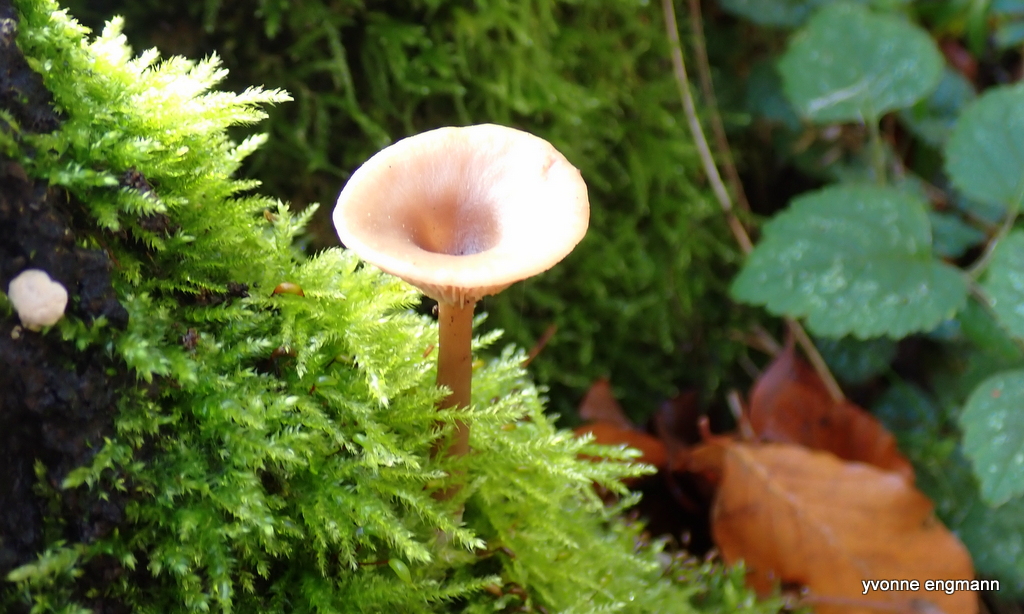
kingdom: Fungi
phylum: Basidiomycota
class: Agaricomycetes
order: Agaricales
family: Tricholomataceae
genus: Infundibulicybe
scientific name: Infundibulicybe gibba
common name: almindelig tragthat
